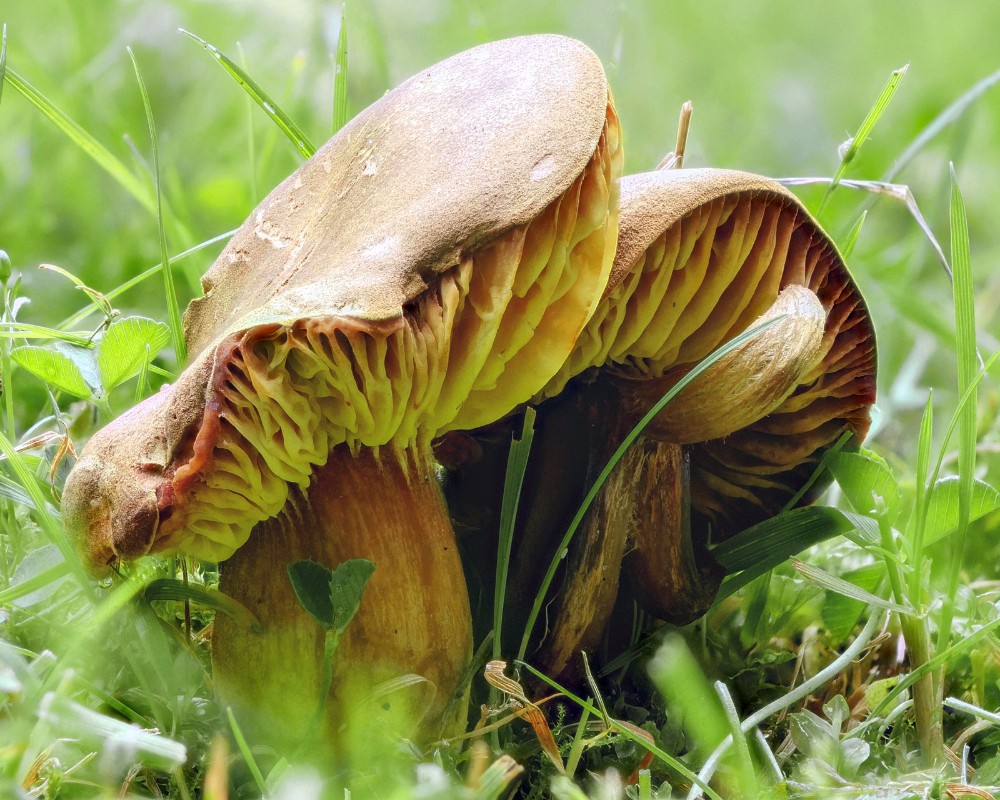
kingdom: Fungi
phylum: Basidiomycota
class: Agaricomycetes
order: Boletales
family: Boletaceae
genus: Phylloporus
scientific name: Phylloporus pelletieri
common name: lamelrørhat
